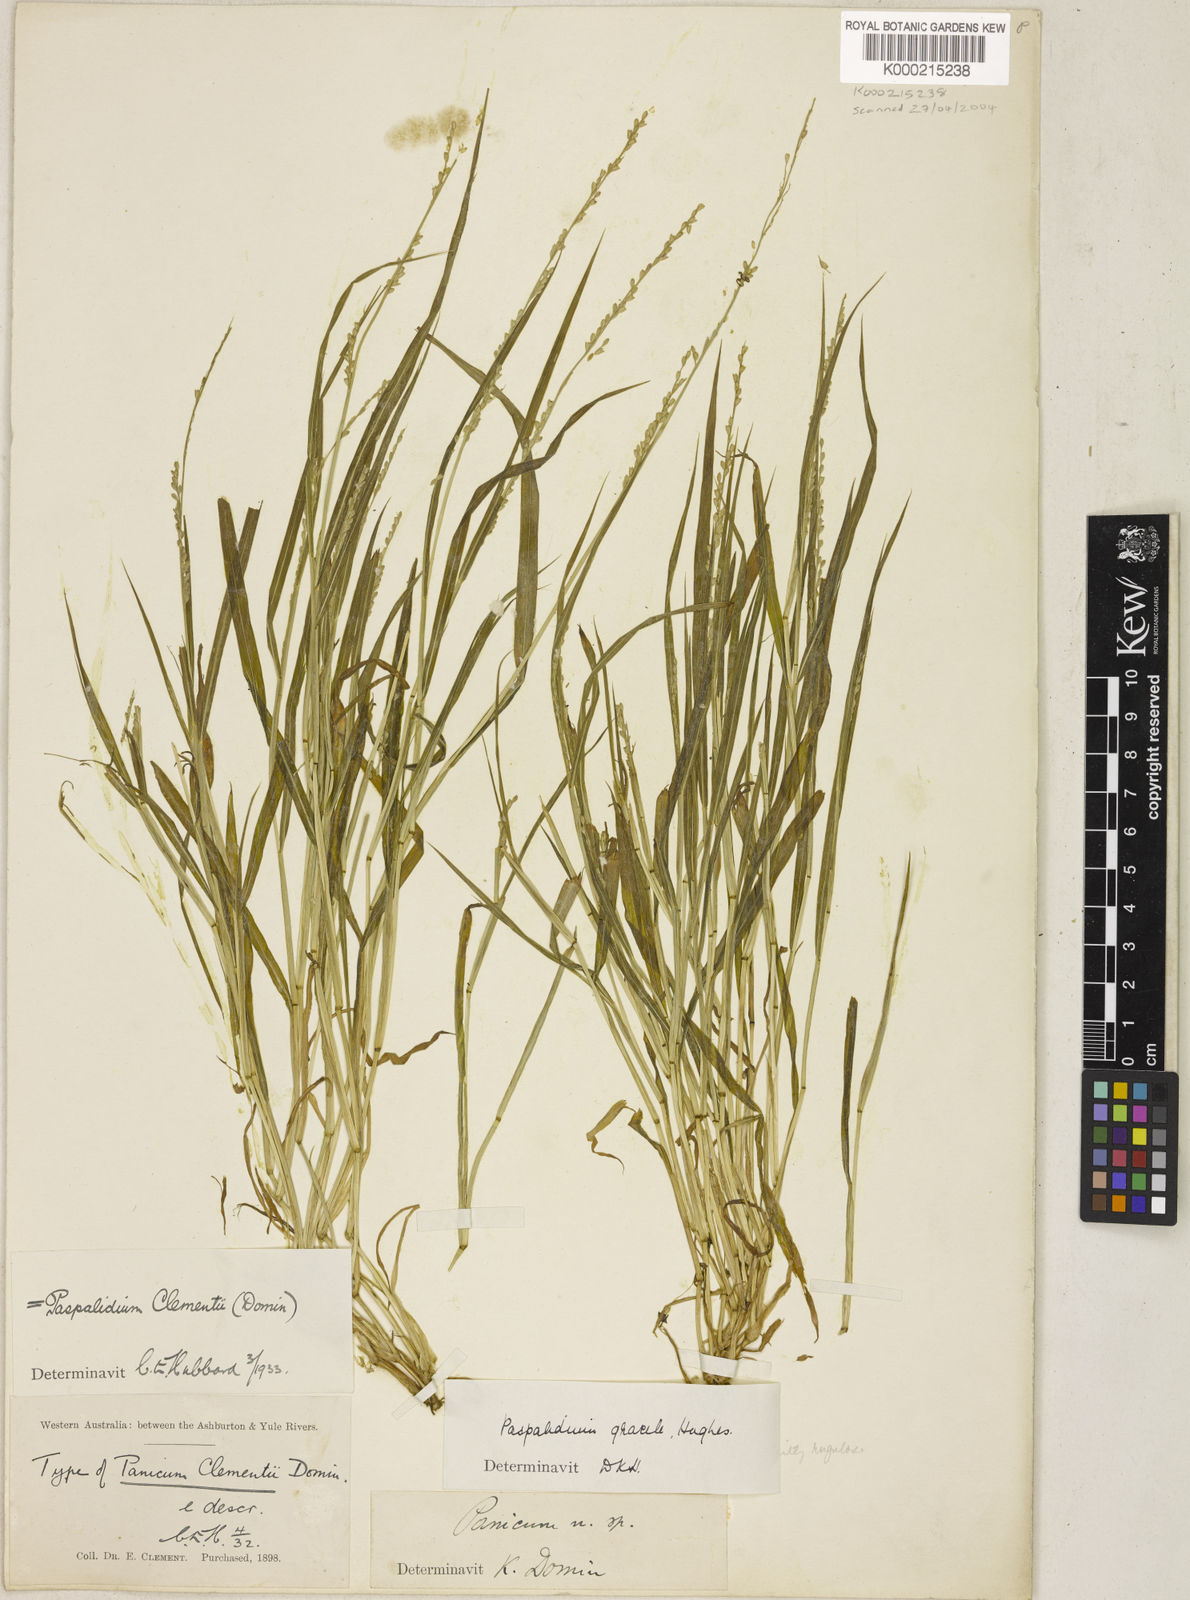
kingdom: Plantae
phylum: Tracheophyta
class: Liliopsida
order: Poales
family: Poaceae
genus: Setaria
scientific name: Setaria clementii
